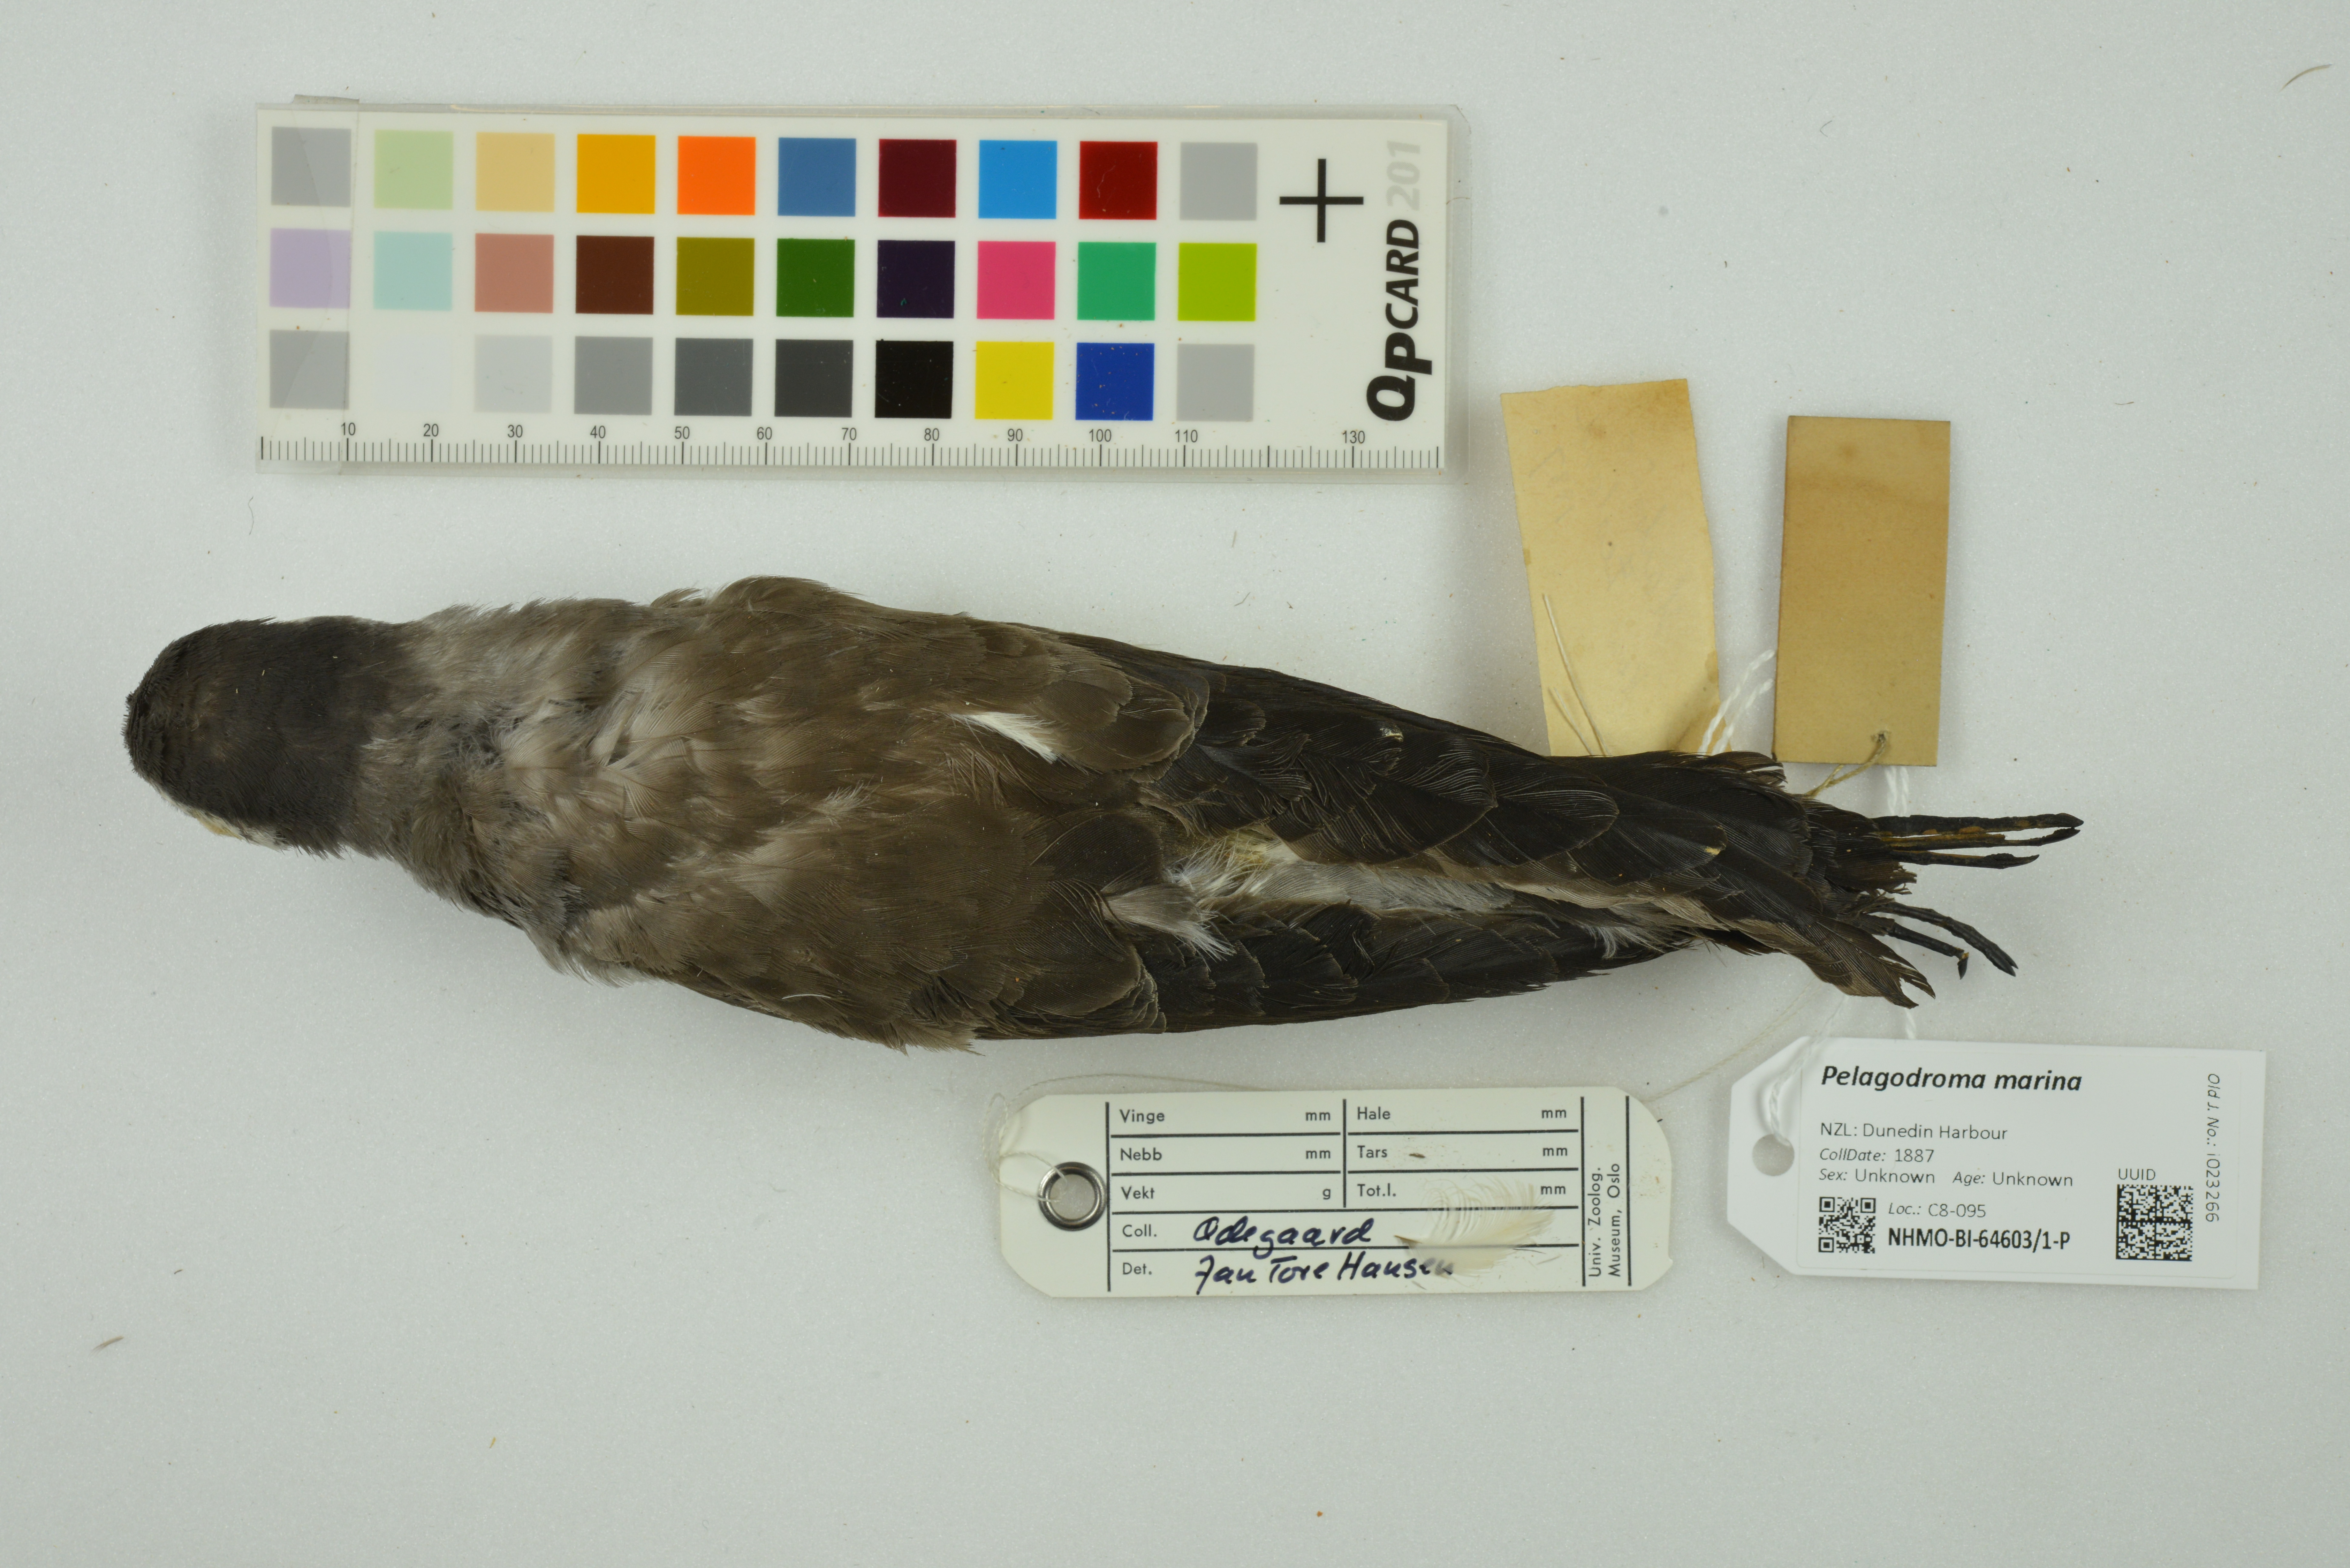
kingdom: Animalia
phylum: Chordata
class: Aves
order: Procellariiformes
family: Hydrobatidae
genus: Pelagodroma
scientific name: Pelagodroma marina
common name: White-faced storm-petrel
